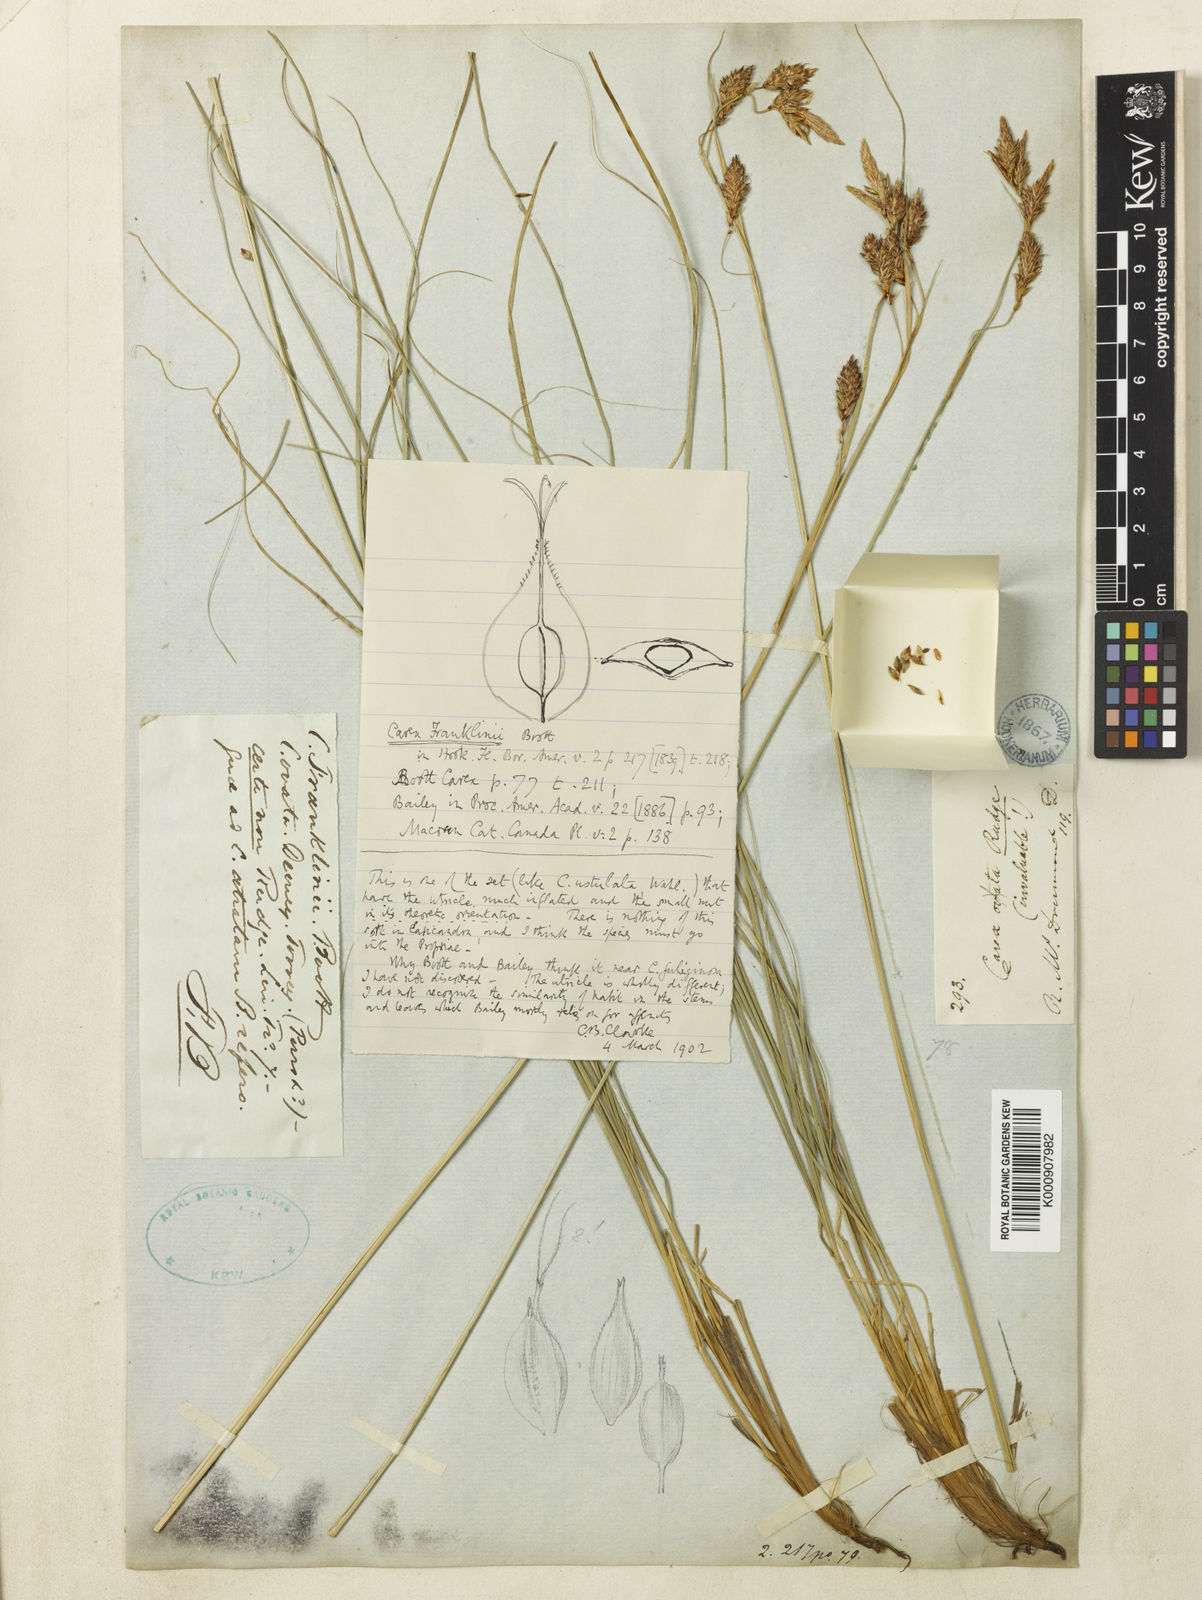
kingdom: Plantae
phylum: Tracheophyta
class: Liliopsida
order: Poales
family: Cyperaceae
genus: Carex
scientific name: Carex petricosa
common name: Rock sedge
